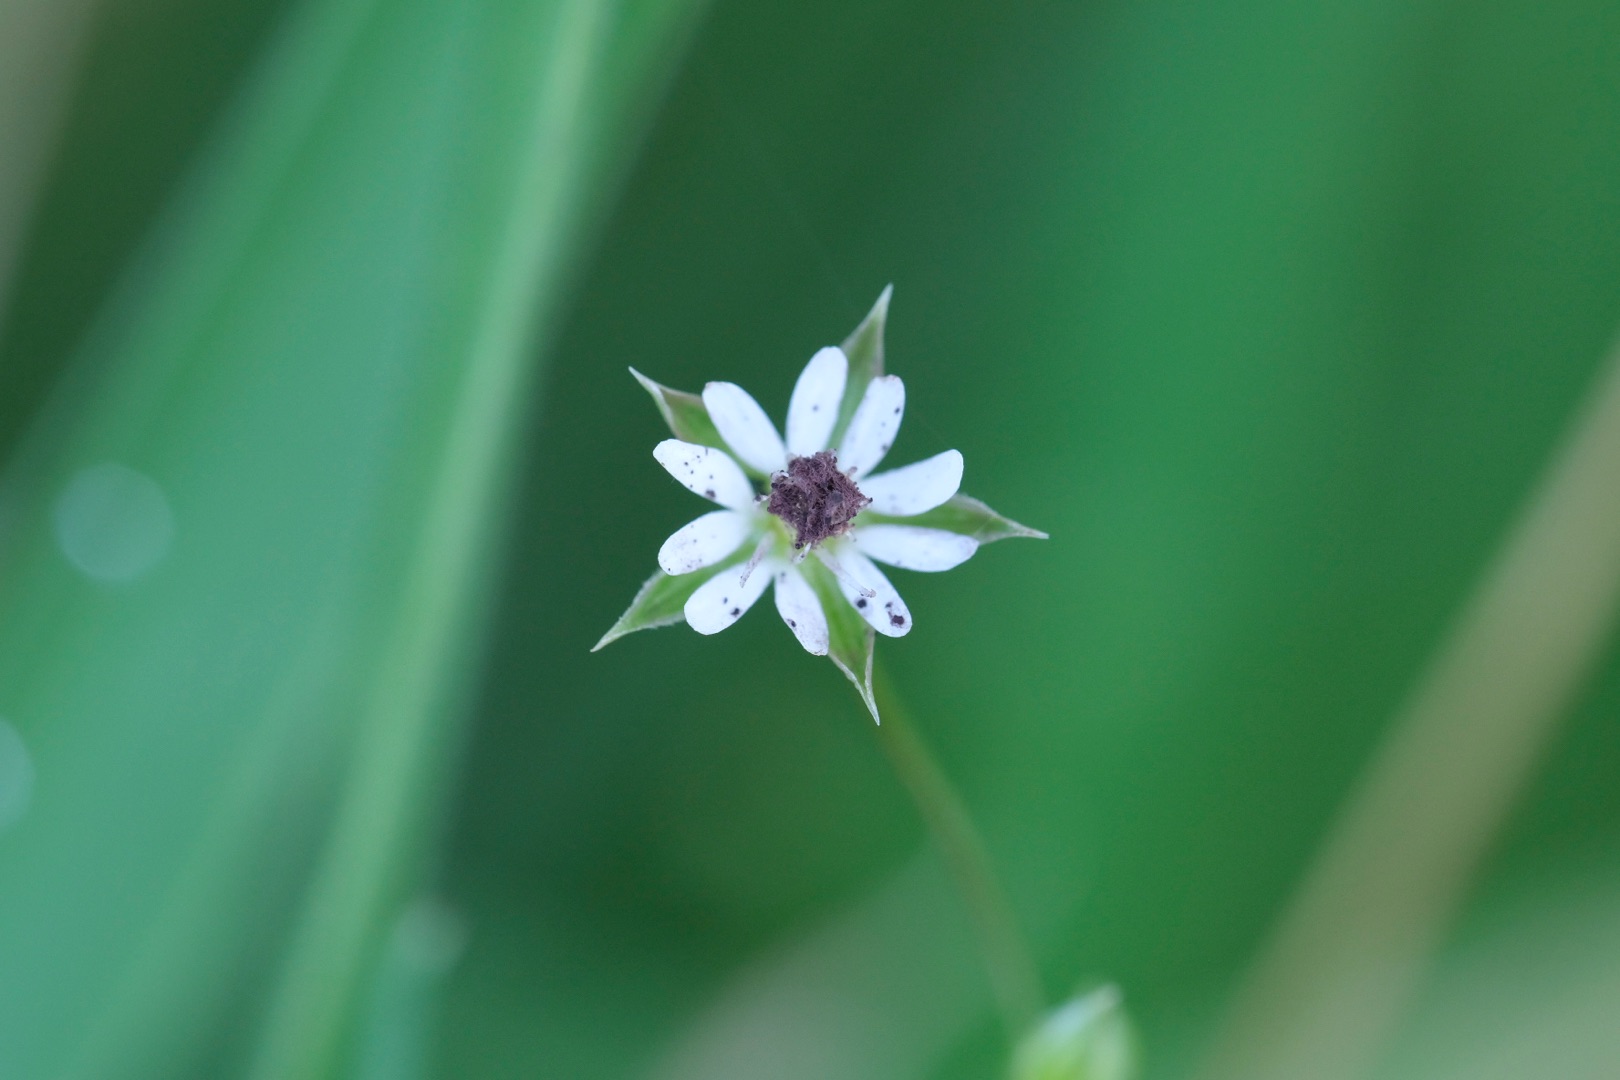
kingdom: Plantae
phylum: Tracheophyta
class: Magnoliopsida
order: Caryophyllales
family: Caryophyllaceae
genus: Stellaria
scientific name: Stellaria graminea
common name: Græsbladet fladstjerne
